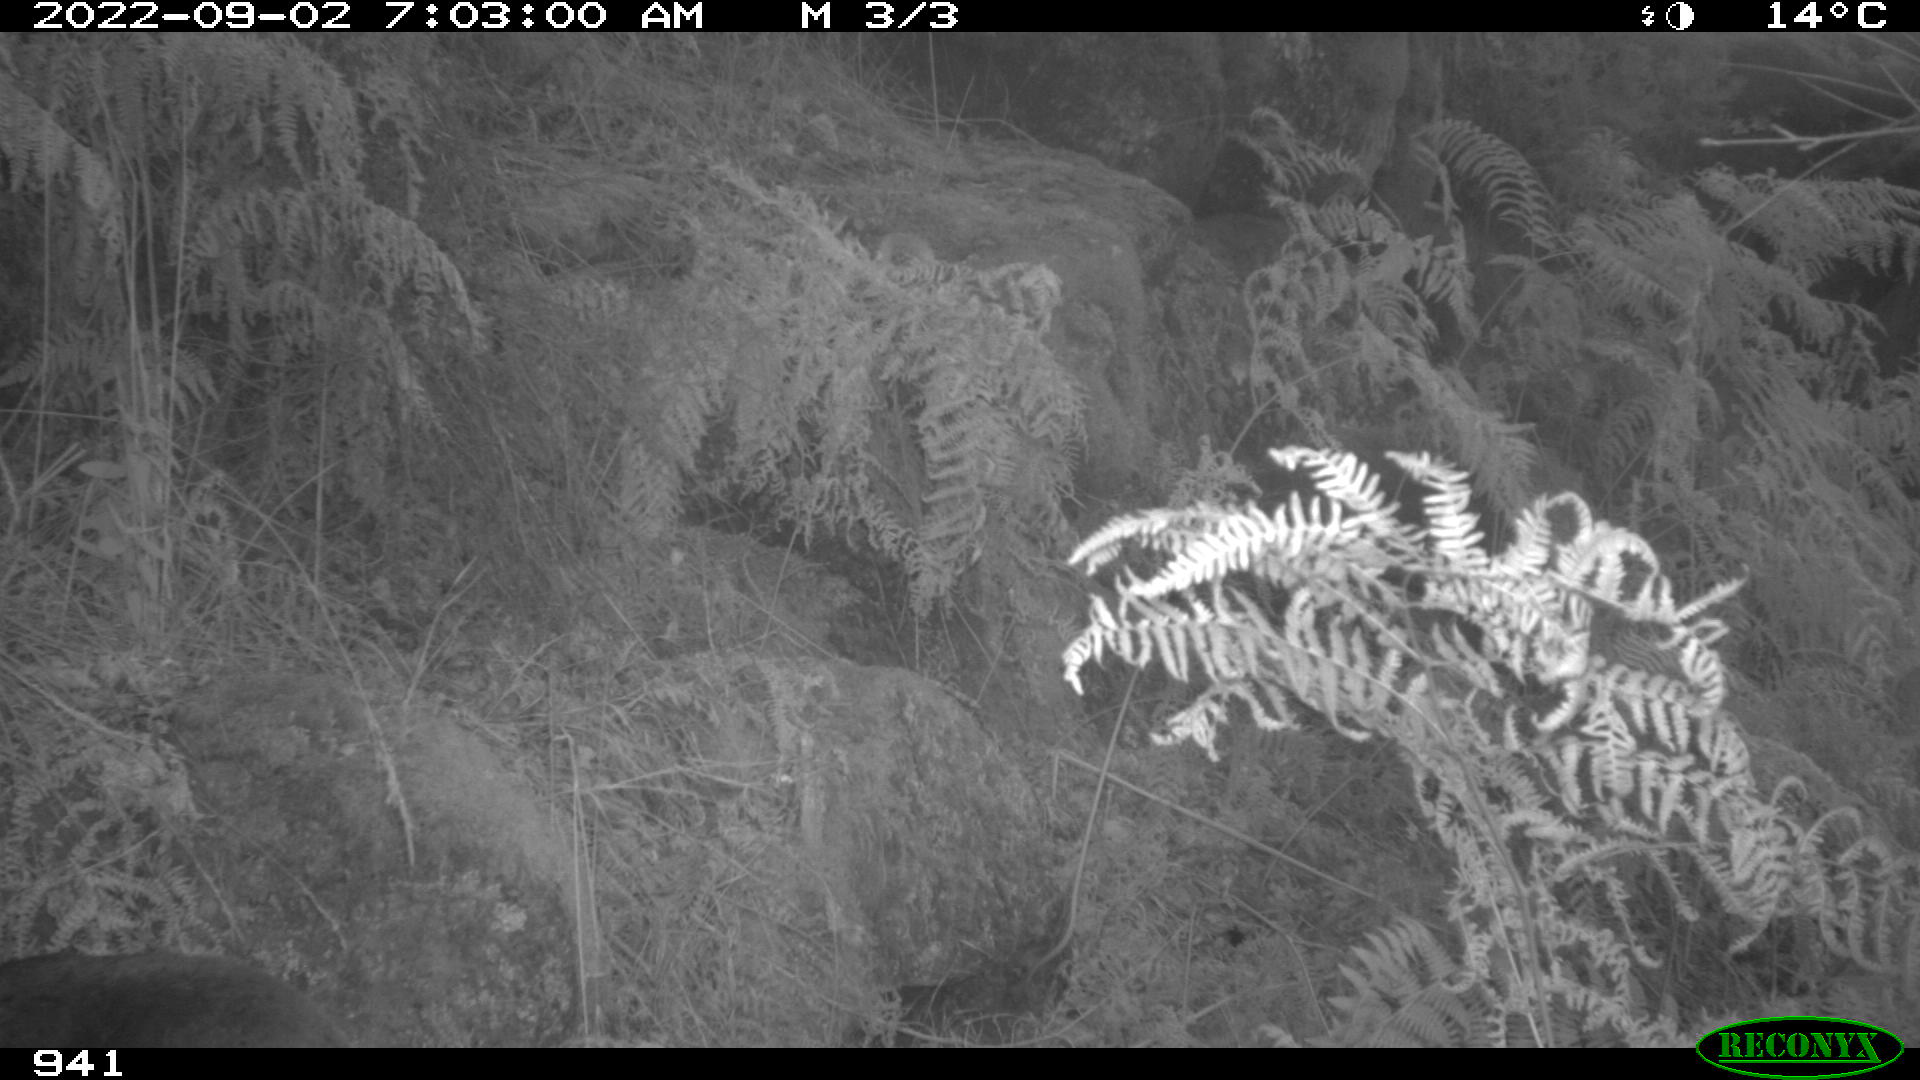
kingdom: Animalia
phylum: Chordata
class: Mammalia
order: Artiodactyla
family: Cervidae
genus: Capreolus
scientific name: Capreolus capreolus
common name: Western roe deer
